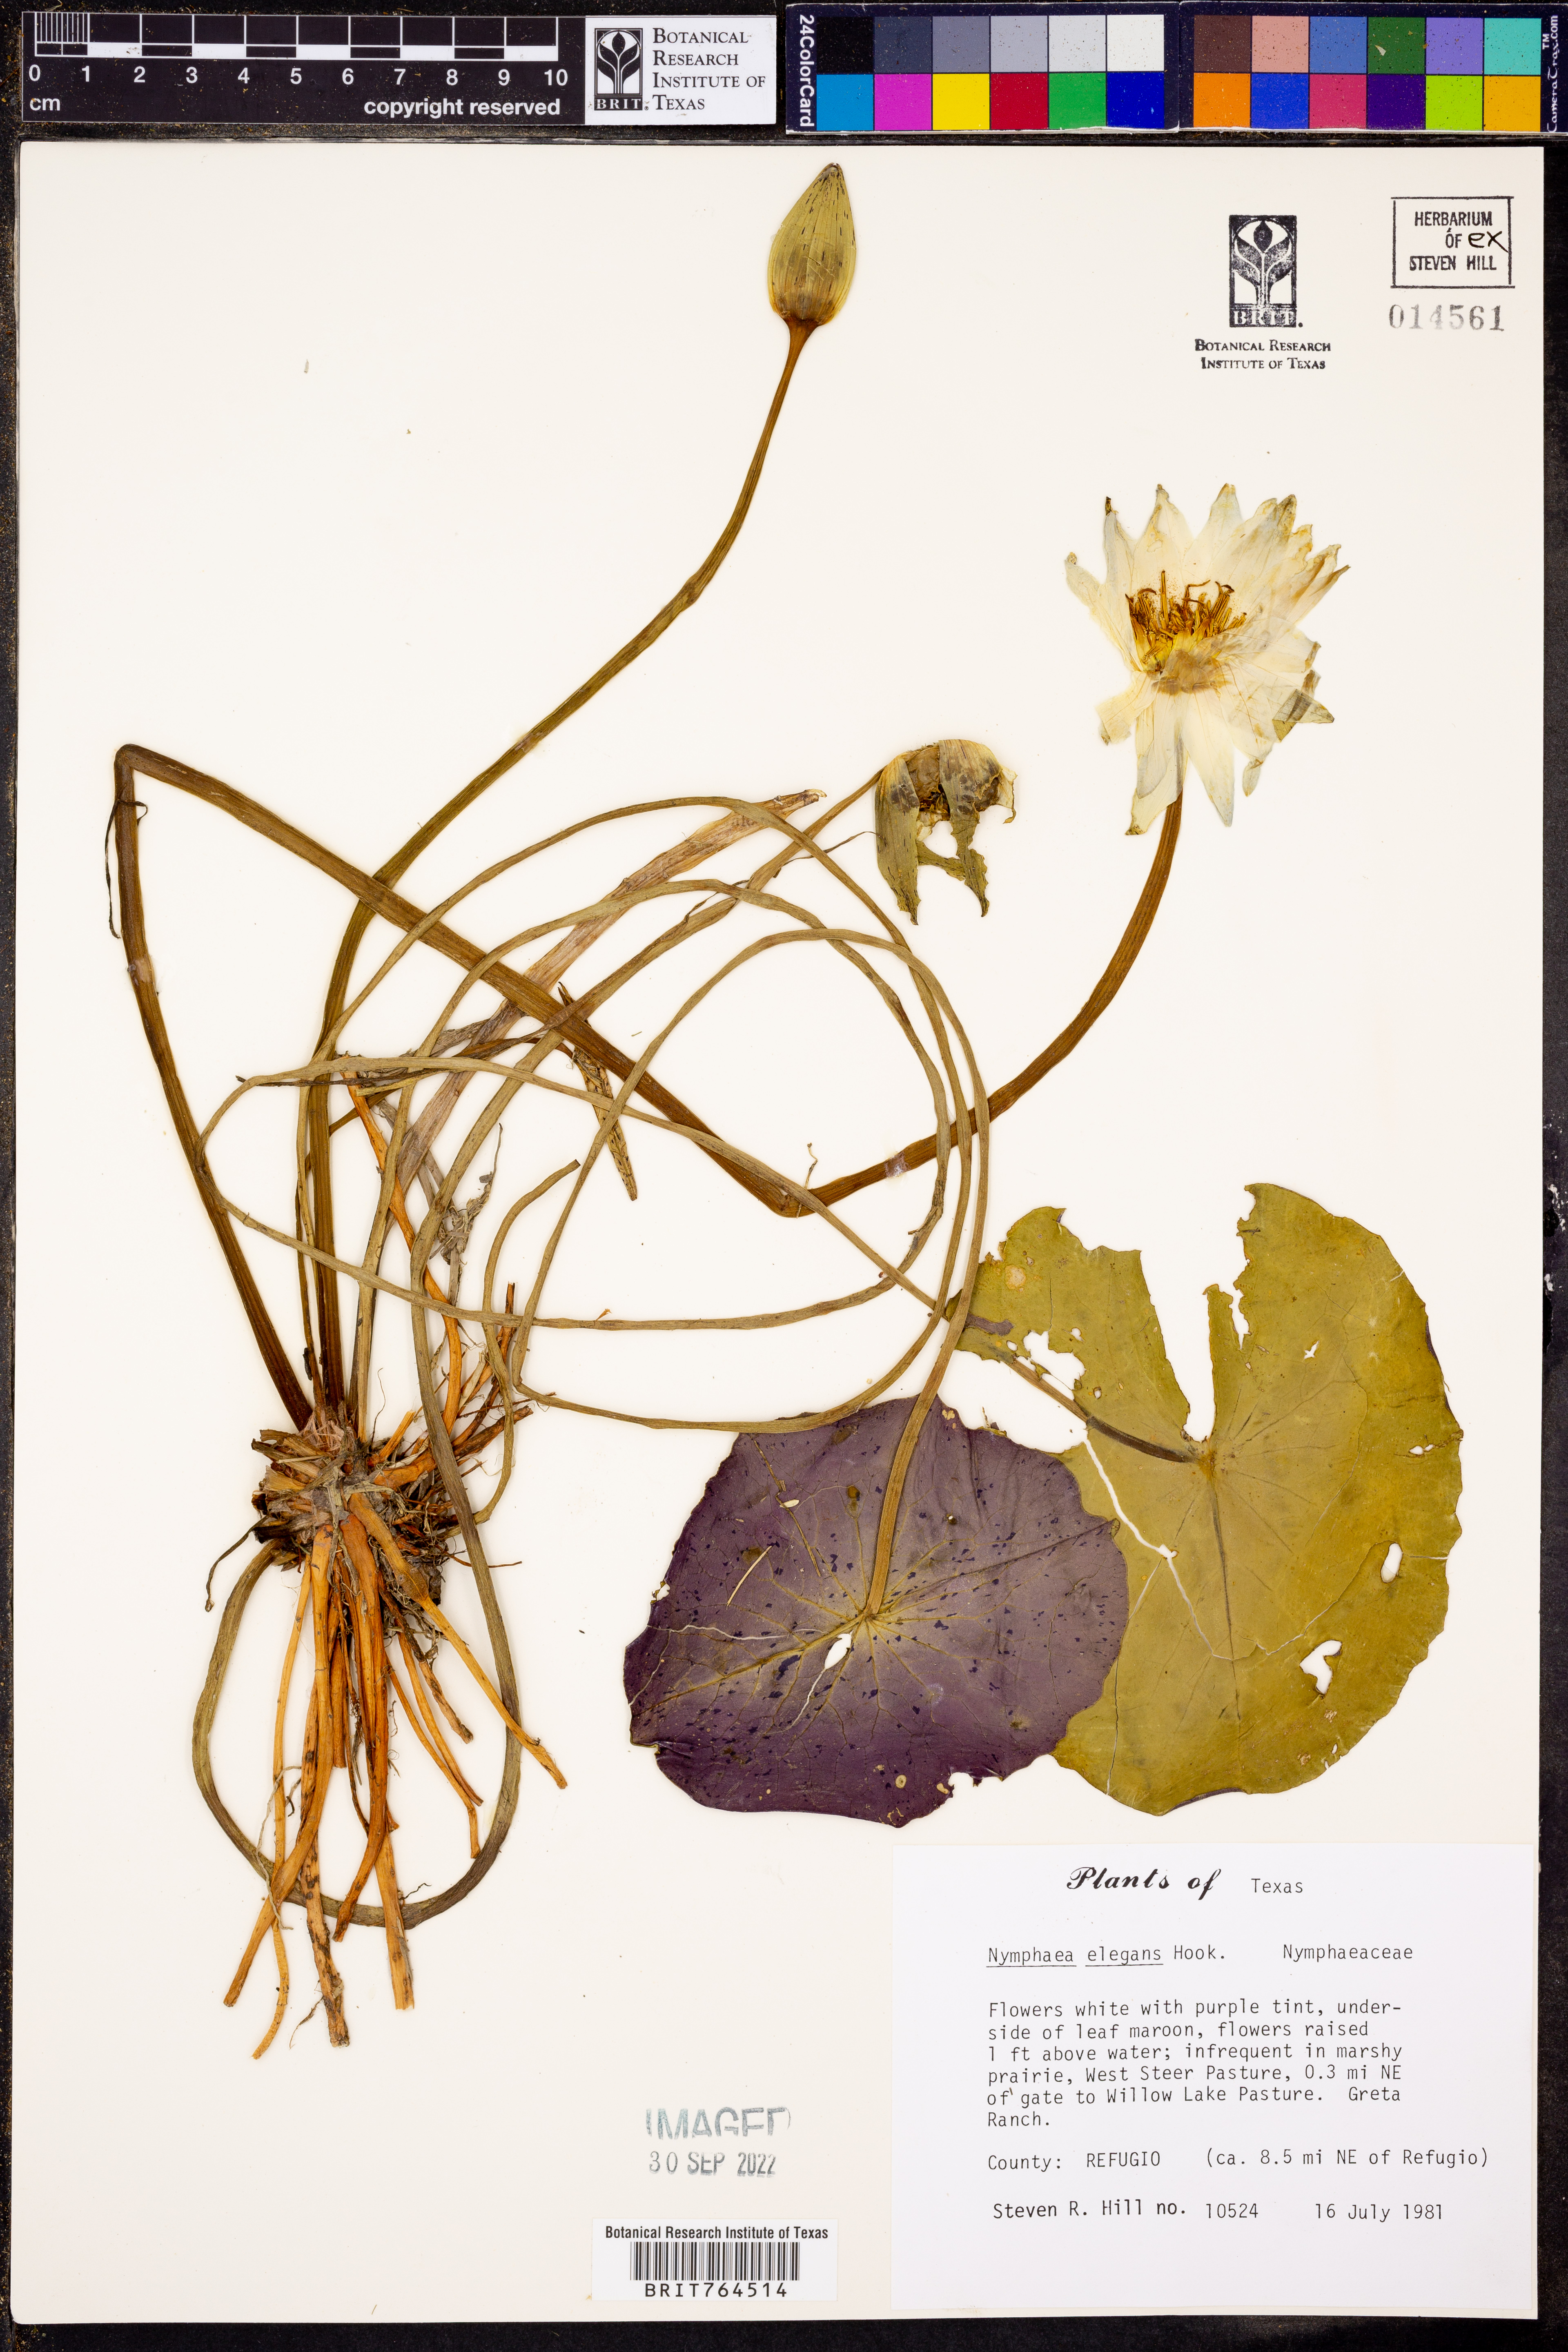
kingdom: Plantae
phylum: Tracheophyta
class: Magnoliopsida
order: Nymphaeales
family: Nymphaeaceae
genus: Nymphaea
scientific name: Nymphaea elegans
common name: Blue water-lily
